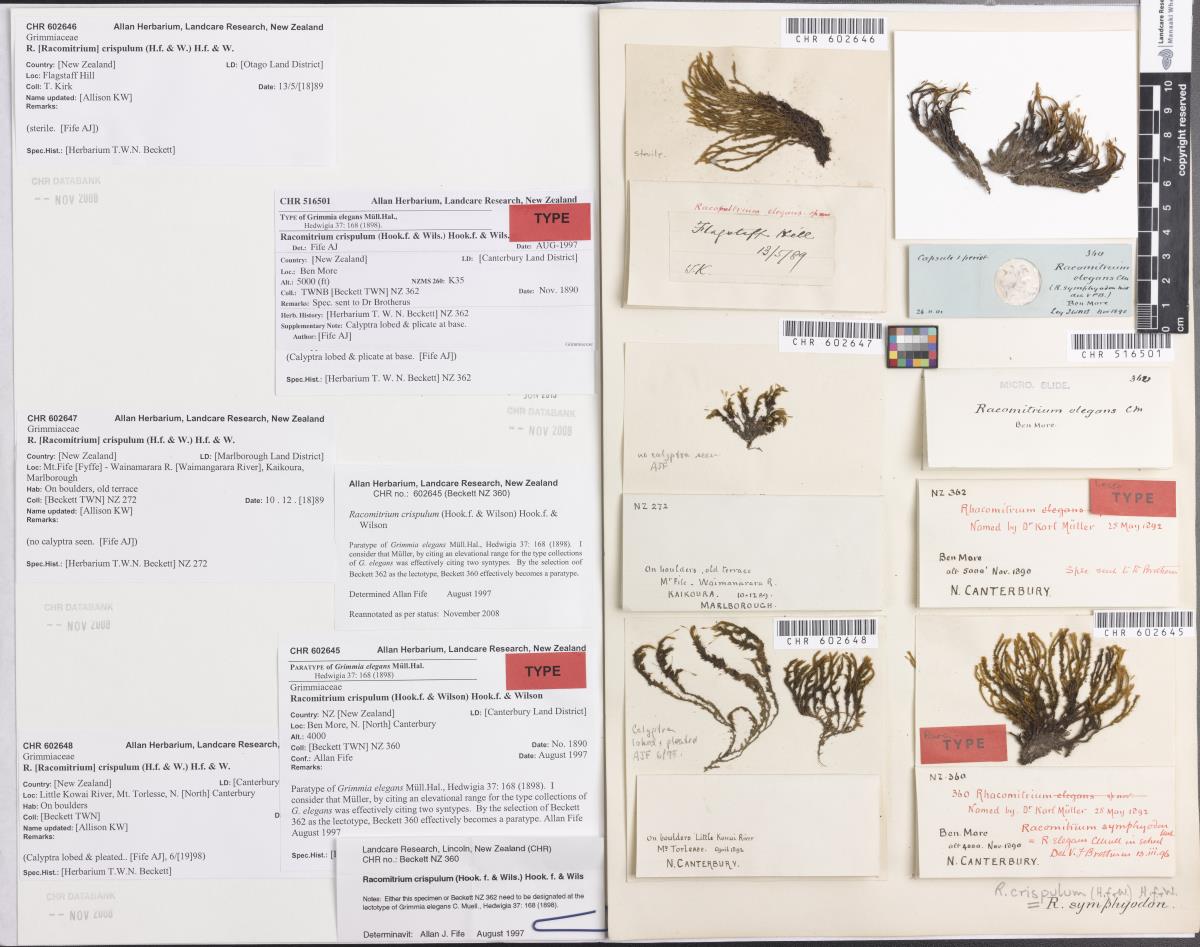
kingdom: Plantae
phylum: Bryophyta
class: Bryopsida
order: Grimmiales
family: Grimmiaceae
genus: Grimmia
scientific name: Grimmia
